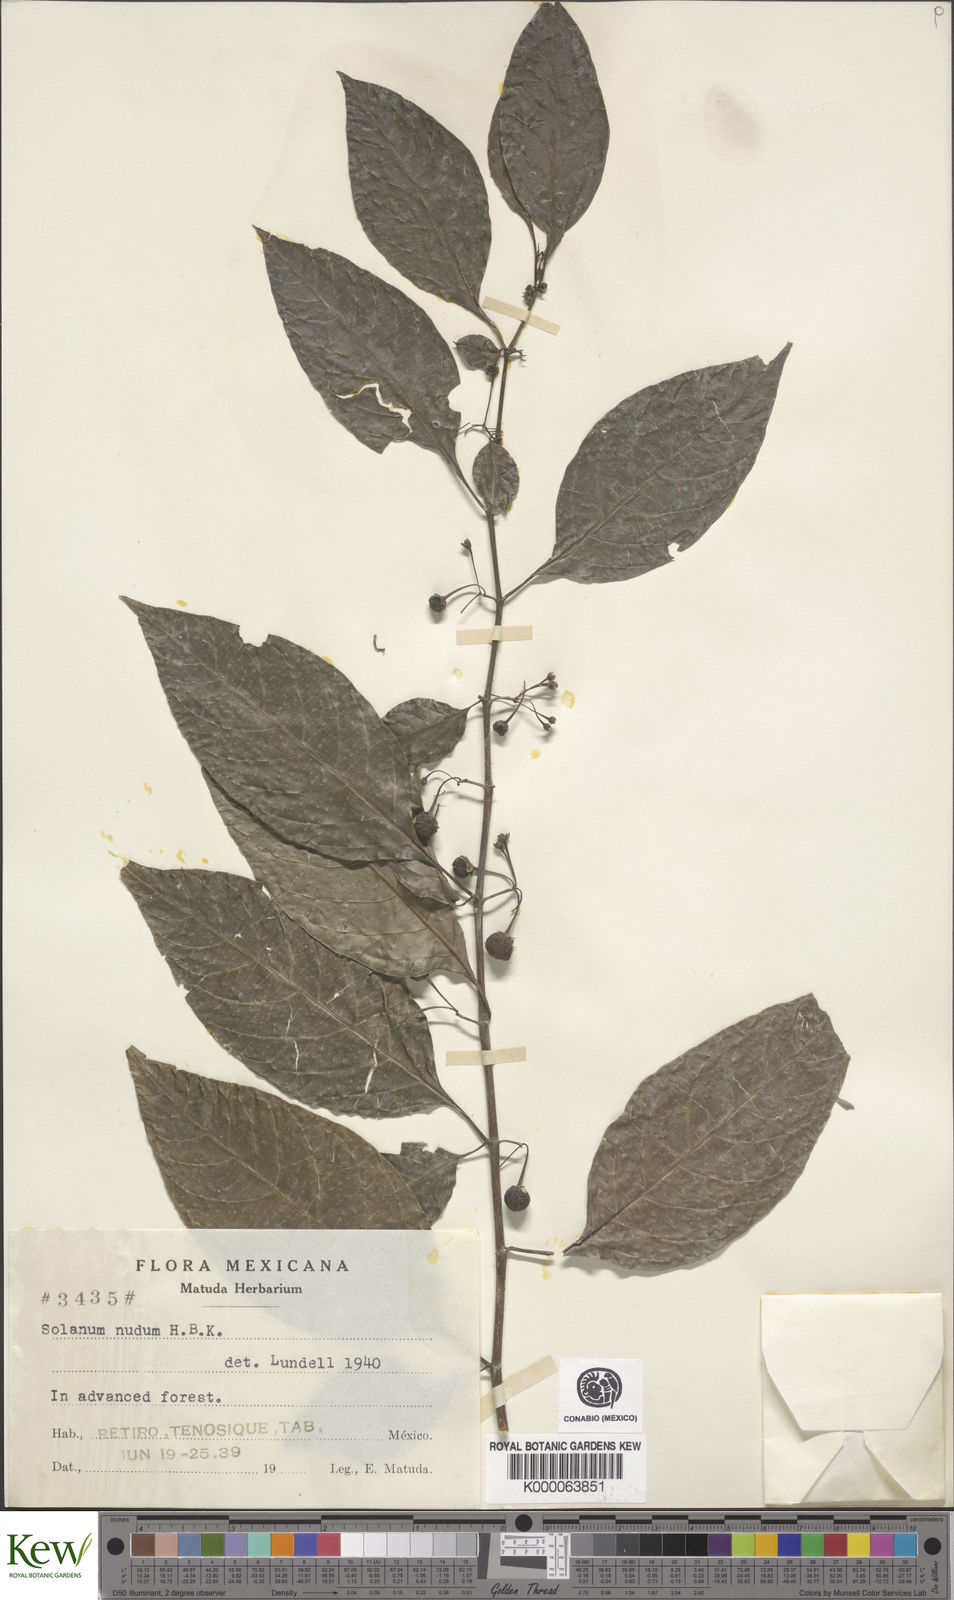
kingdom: Plantae
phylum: Tracheophyta
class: Magnoliopsida
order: Solanales
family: Solanaceae
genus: Solanum
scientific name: Solanum nudum
